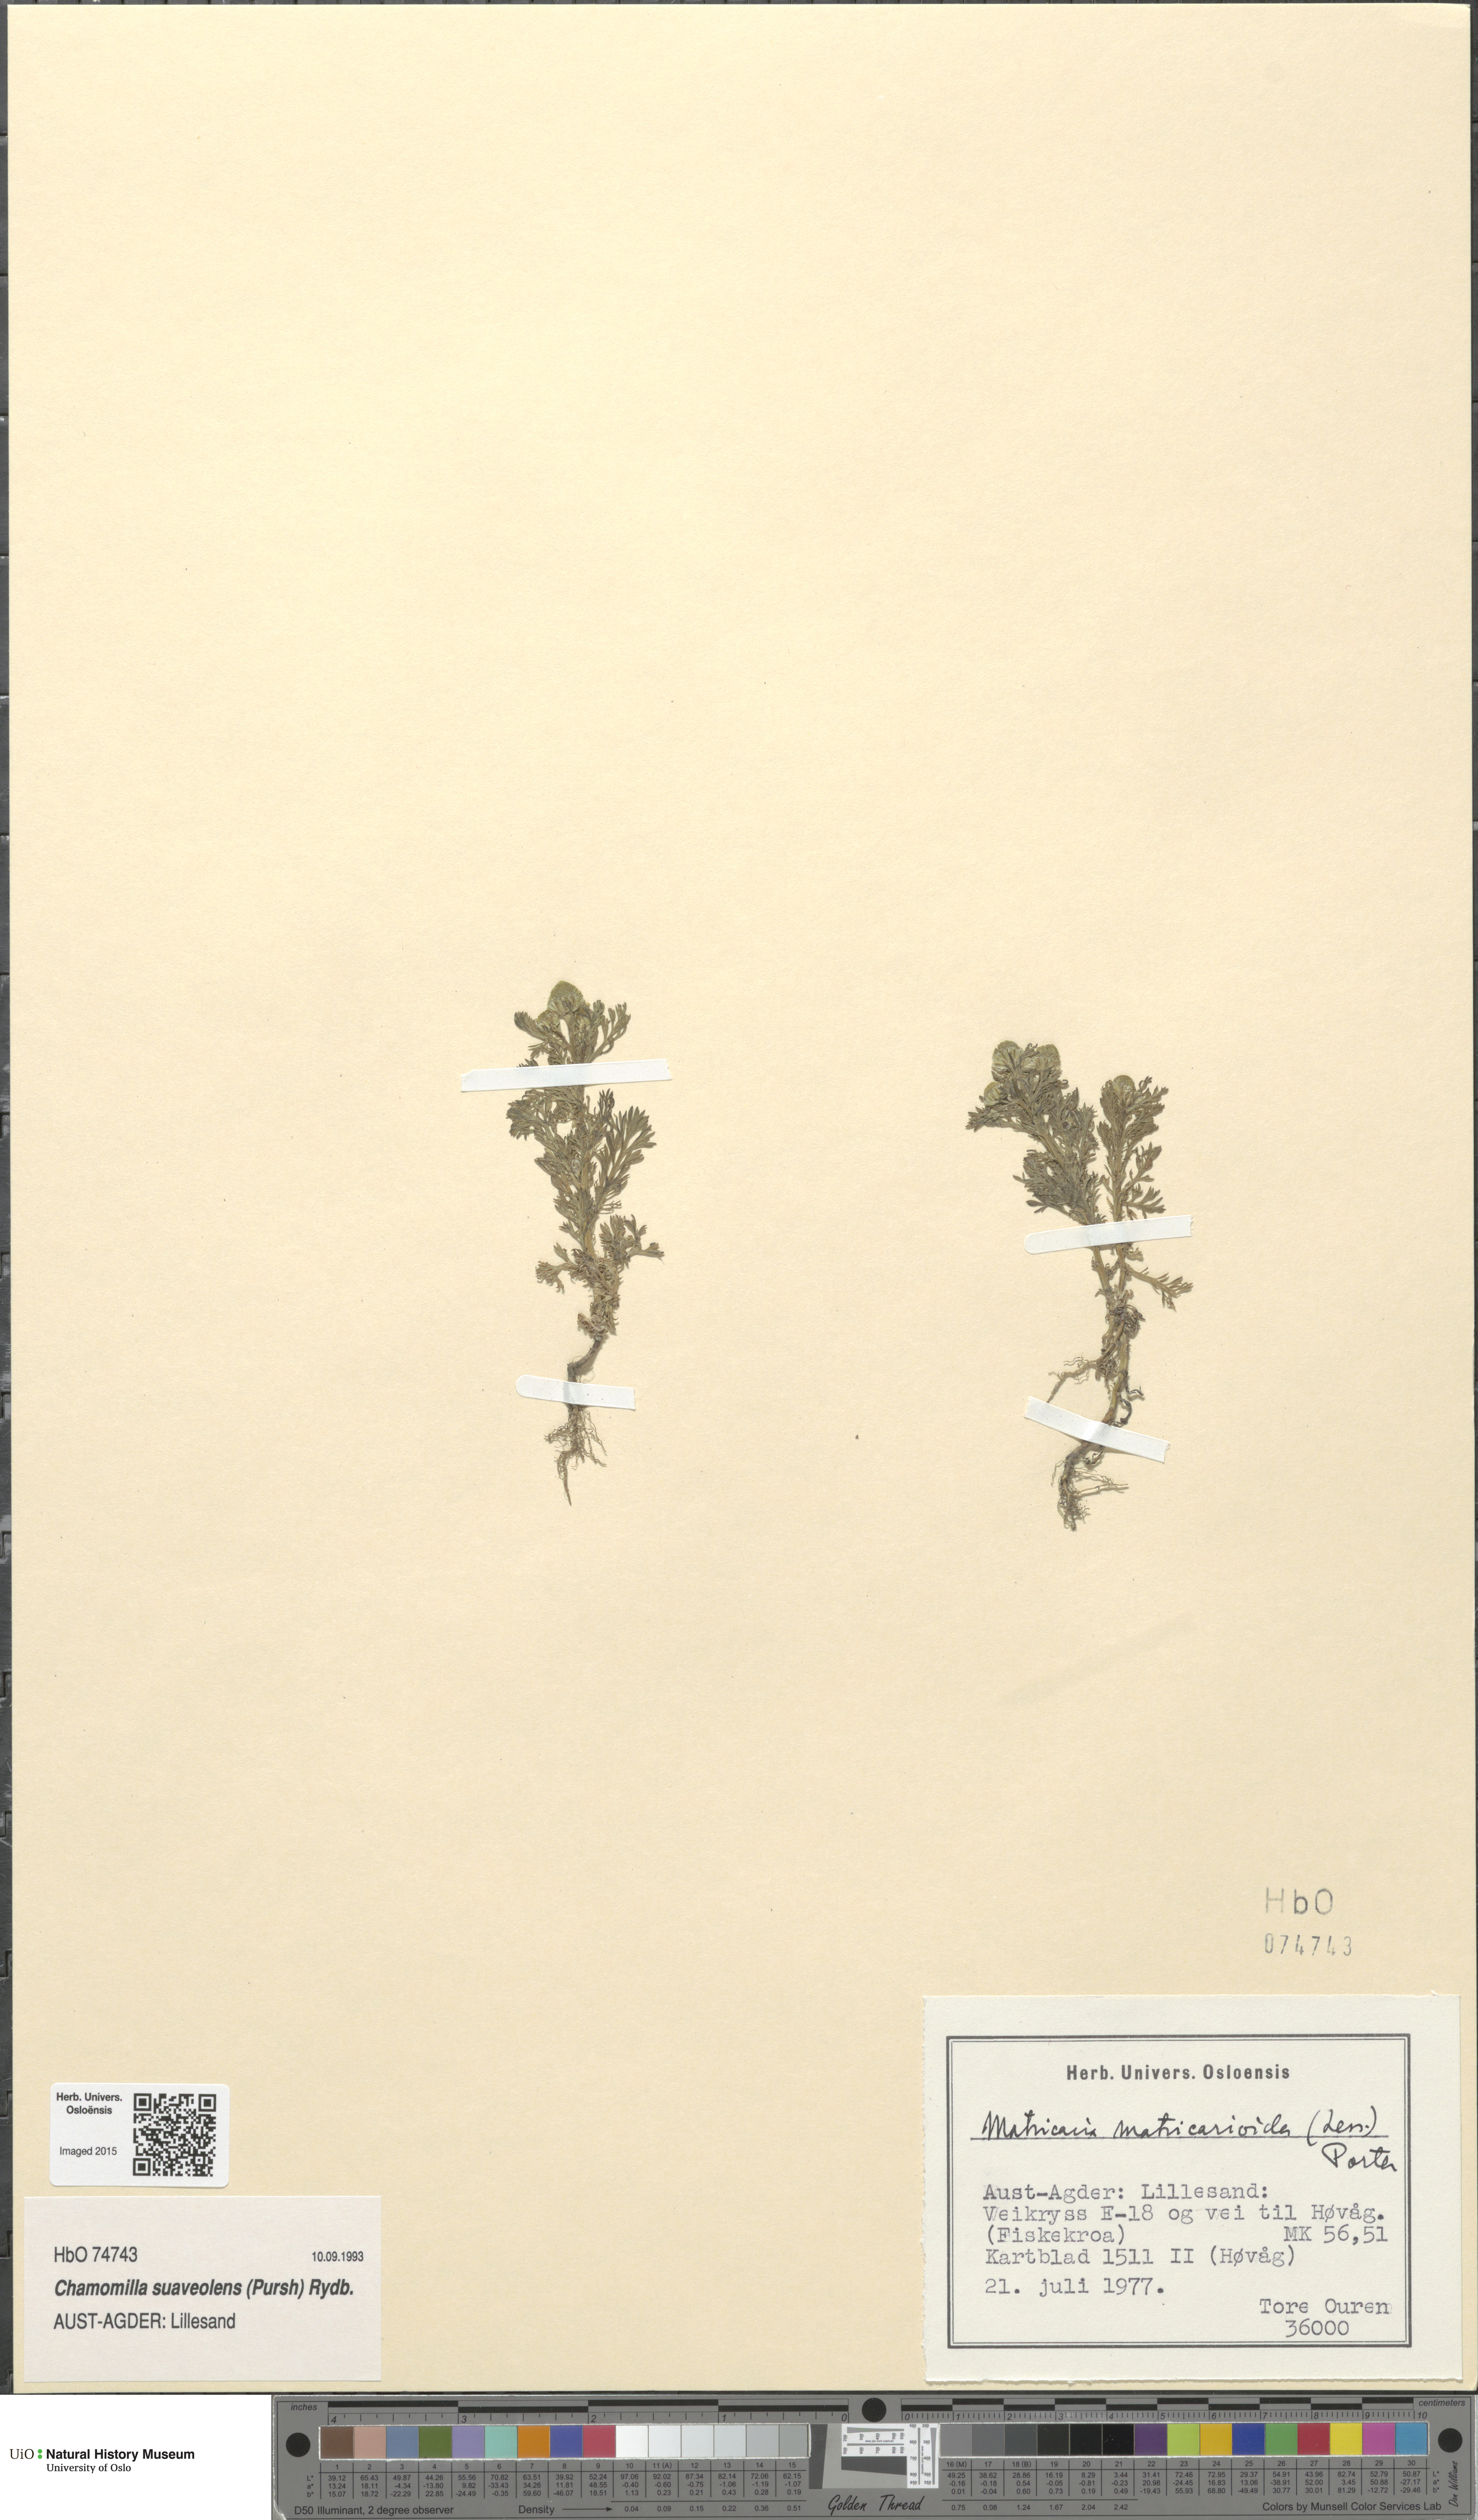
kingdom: Plantae
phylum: Tracheophyta
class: Magnoliopsida
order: Asterales
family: Asteraceae
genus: Matricaria
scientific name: Matricaria discoidea
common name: Disc mayweed
